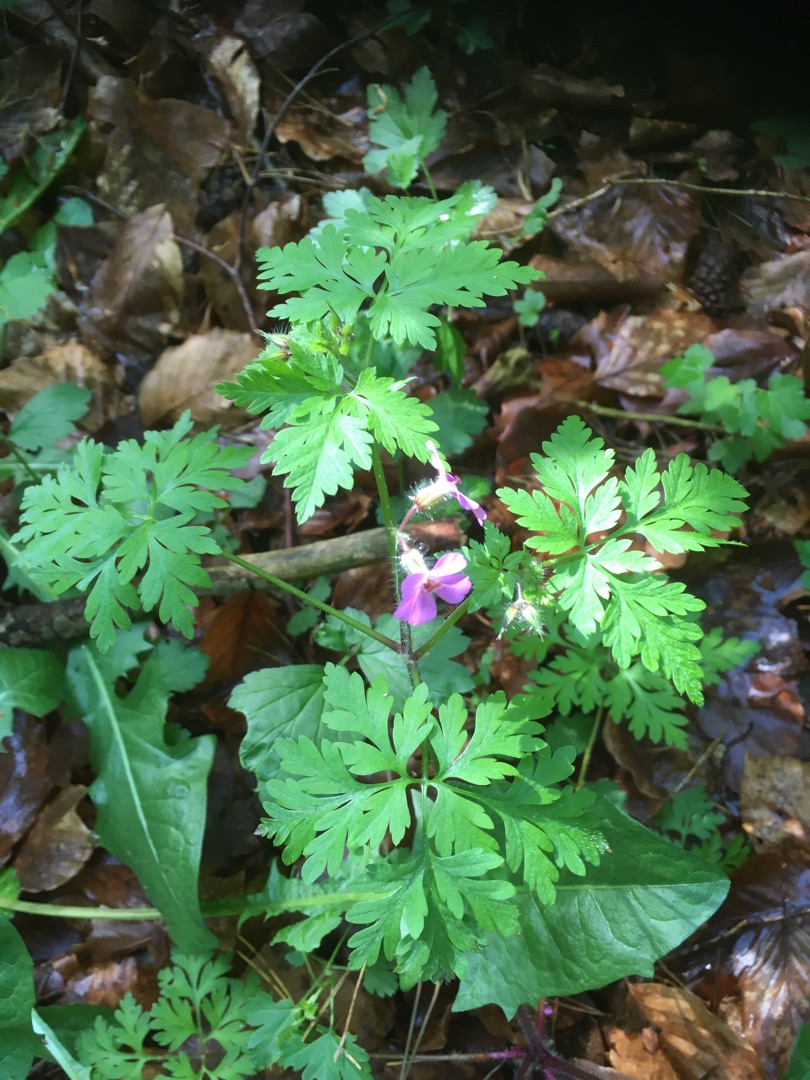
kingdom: Plantae
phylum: Tracheophyta
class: Magnoliopsida
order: Geraniales
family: Geraniaceae
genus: Geranium
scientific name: Geranium robertianum
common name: Stinkende storkenæb
